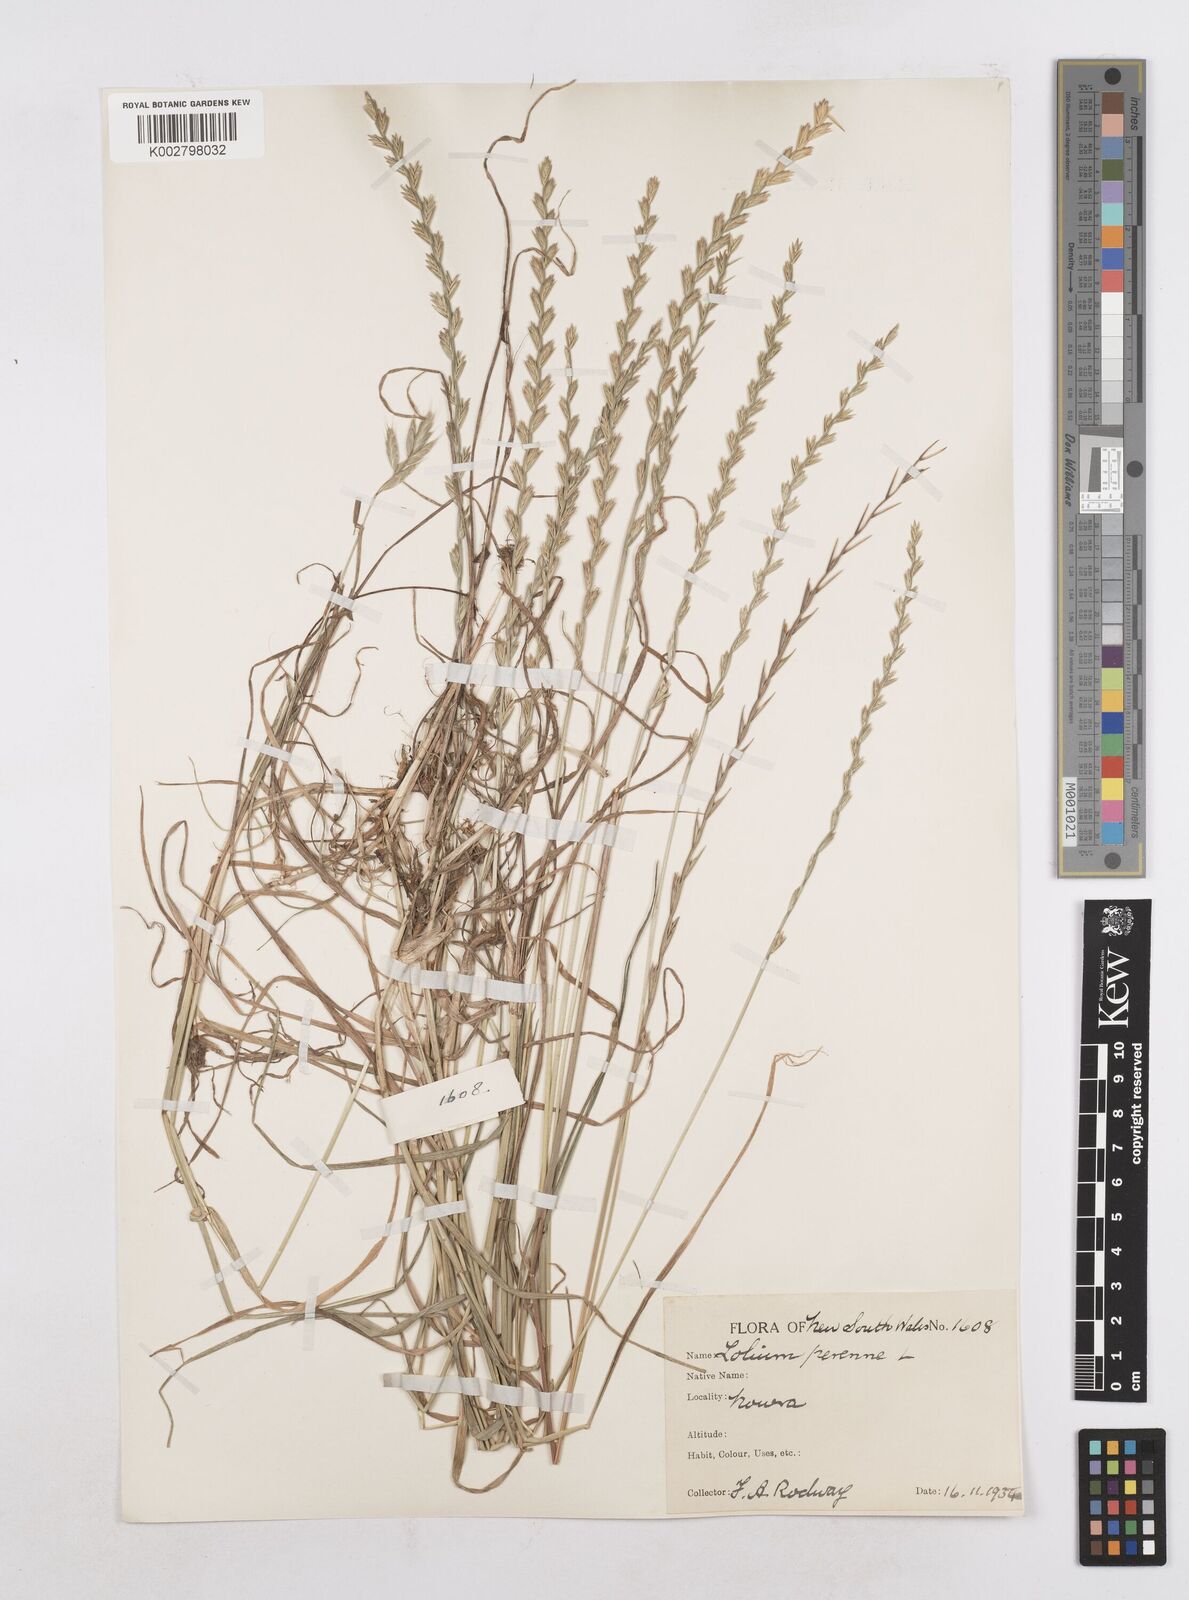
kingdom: Plantae
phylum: Tracheophyta
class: Liliopsida
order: Poales
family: Poaceae
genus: Lolium
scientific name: Lolium perenne
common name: Perennial ryegrass
